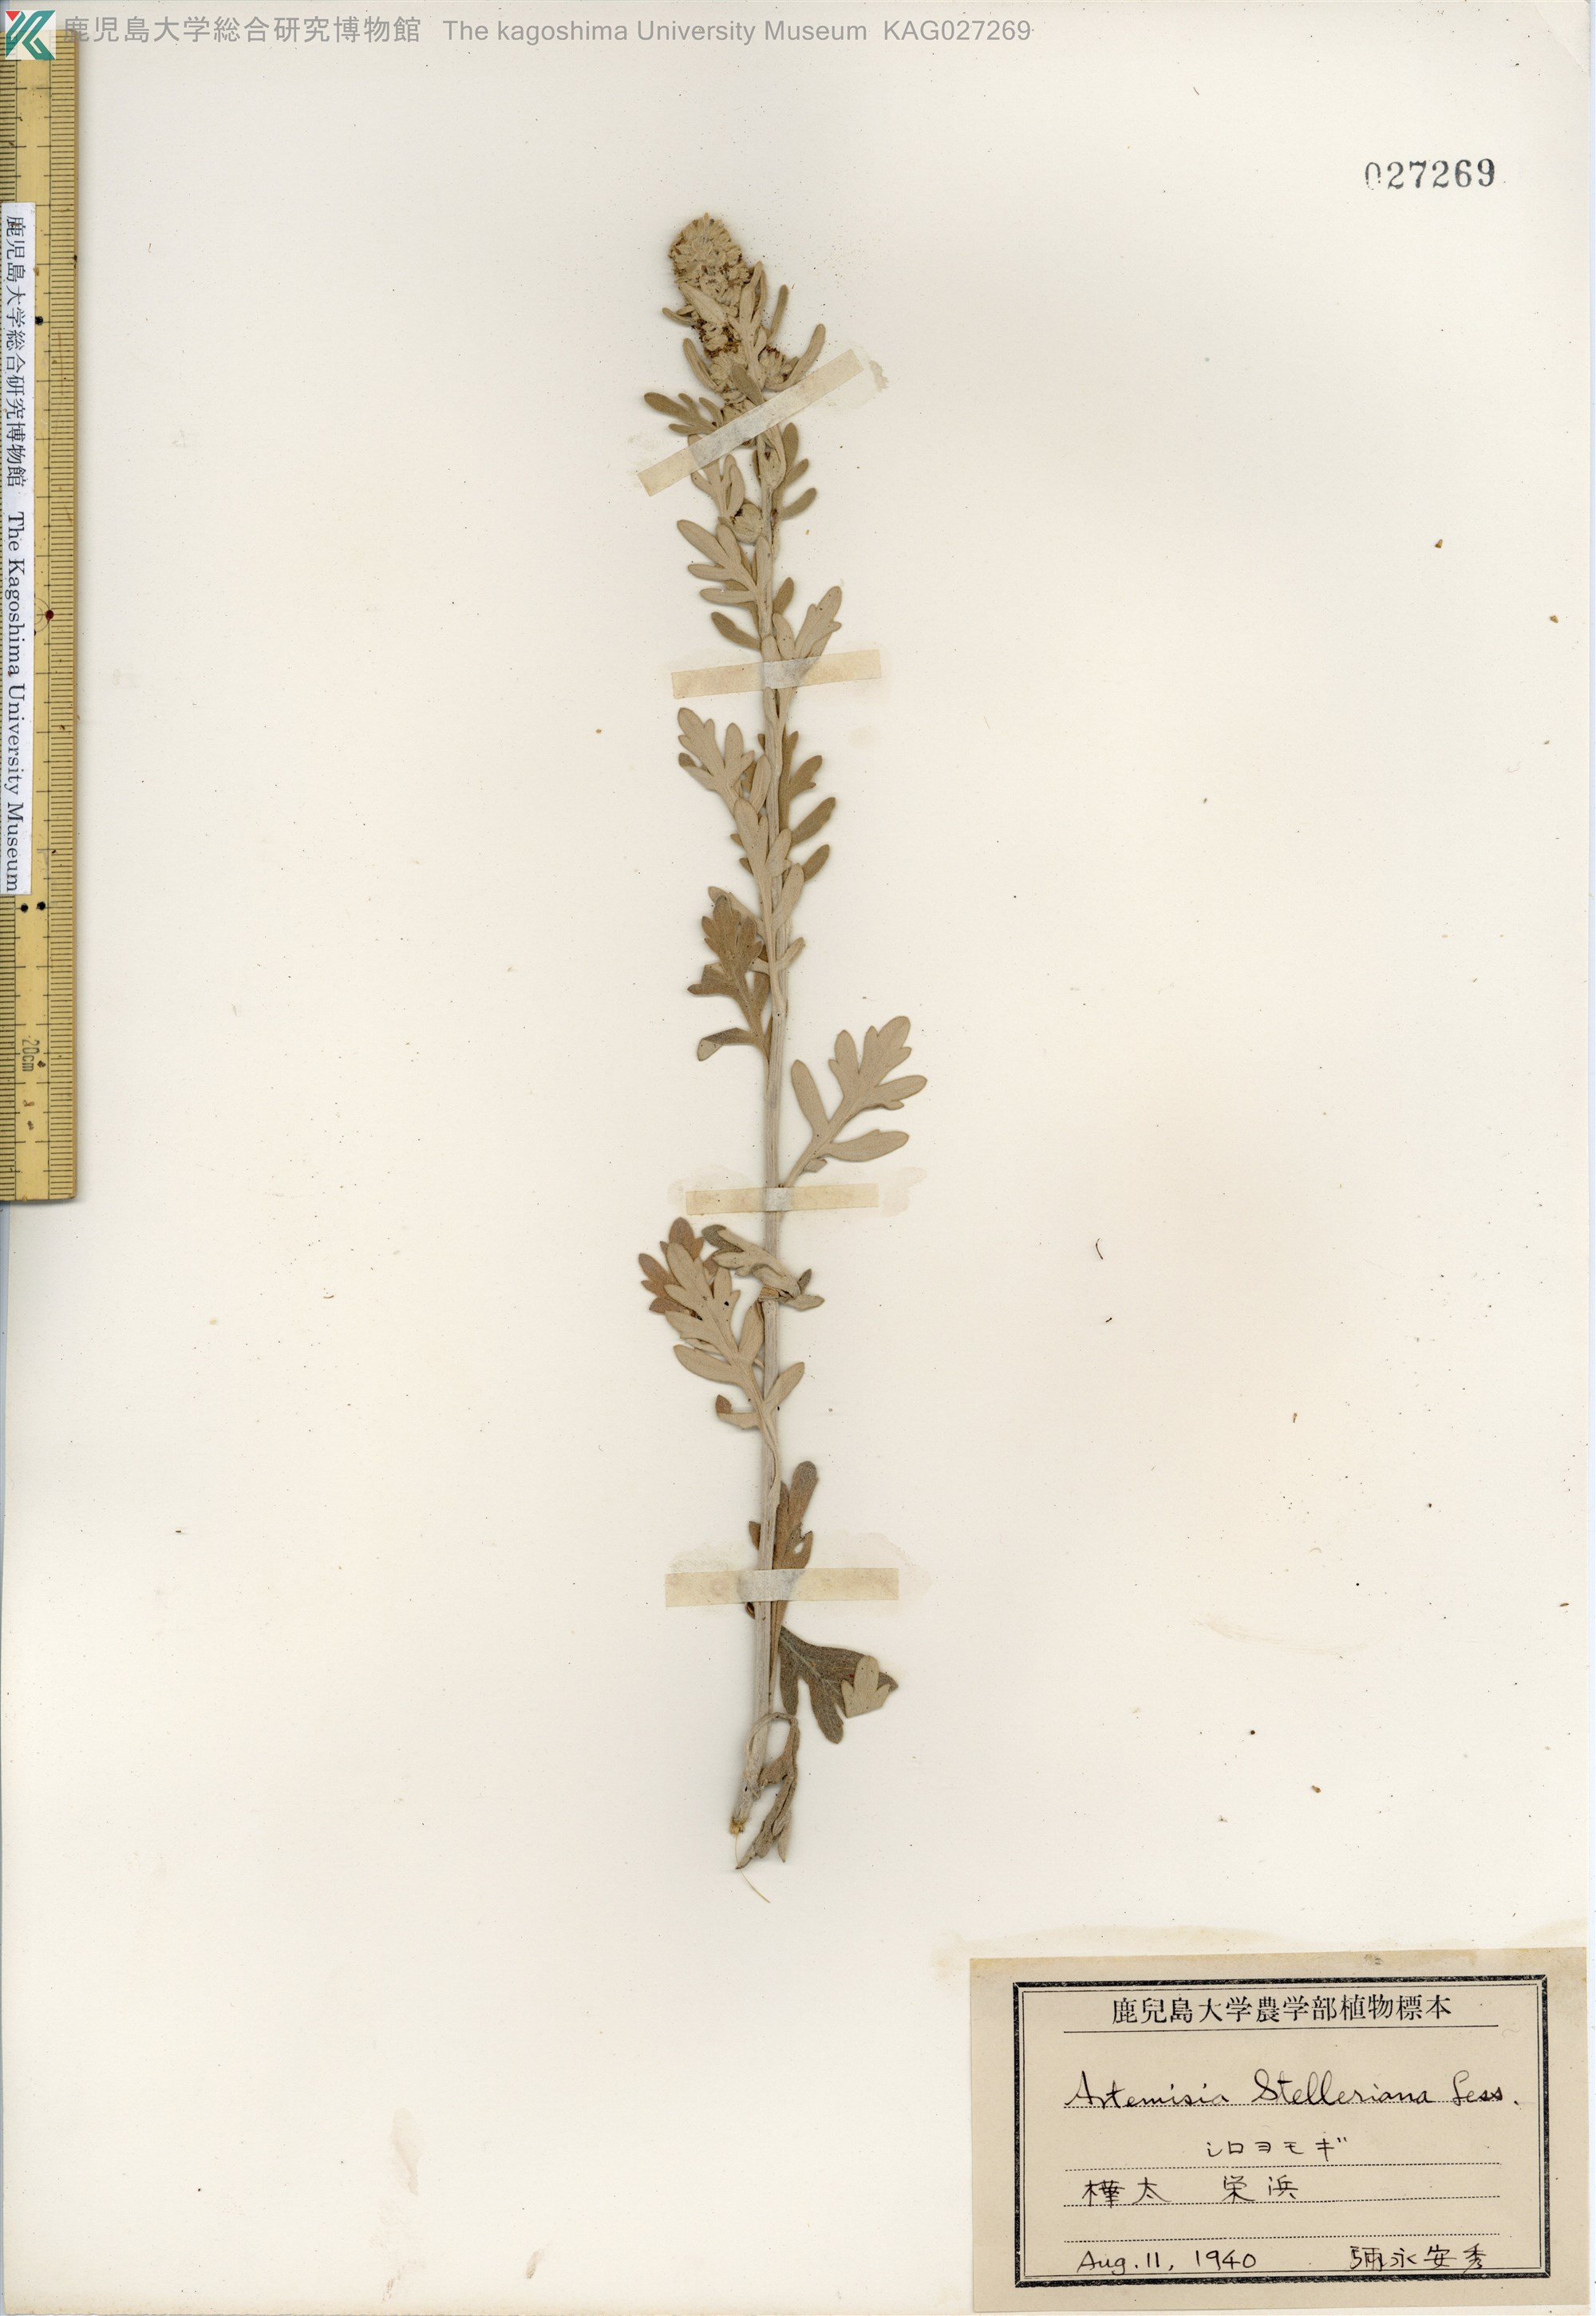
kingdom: Plantae
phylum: Tracheophyta
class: Magnoliopsida
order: Asterales
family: Asteraceae
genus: Artemisia
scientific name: Artemisia stelleriana
